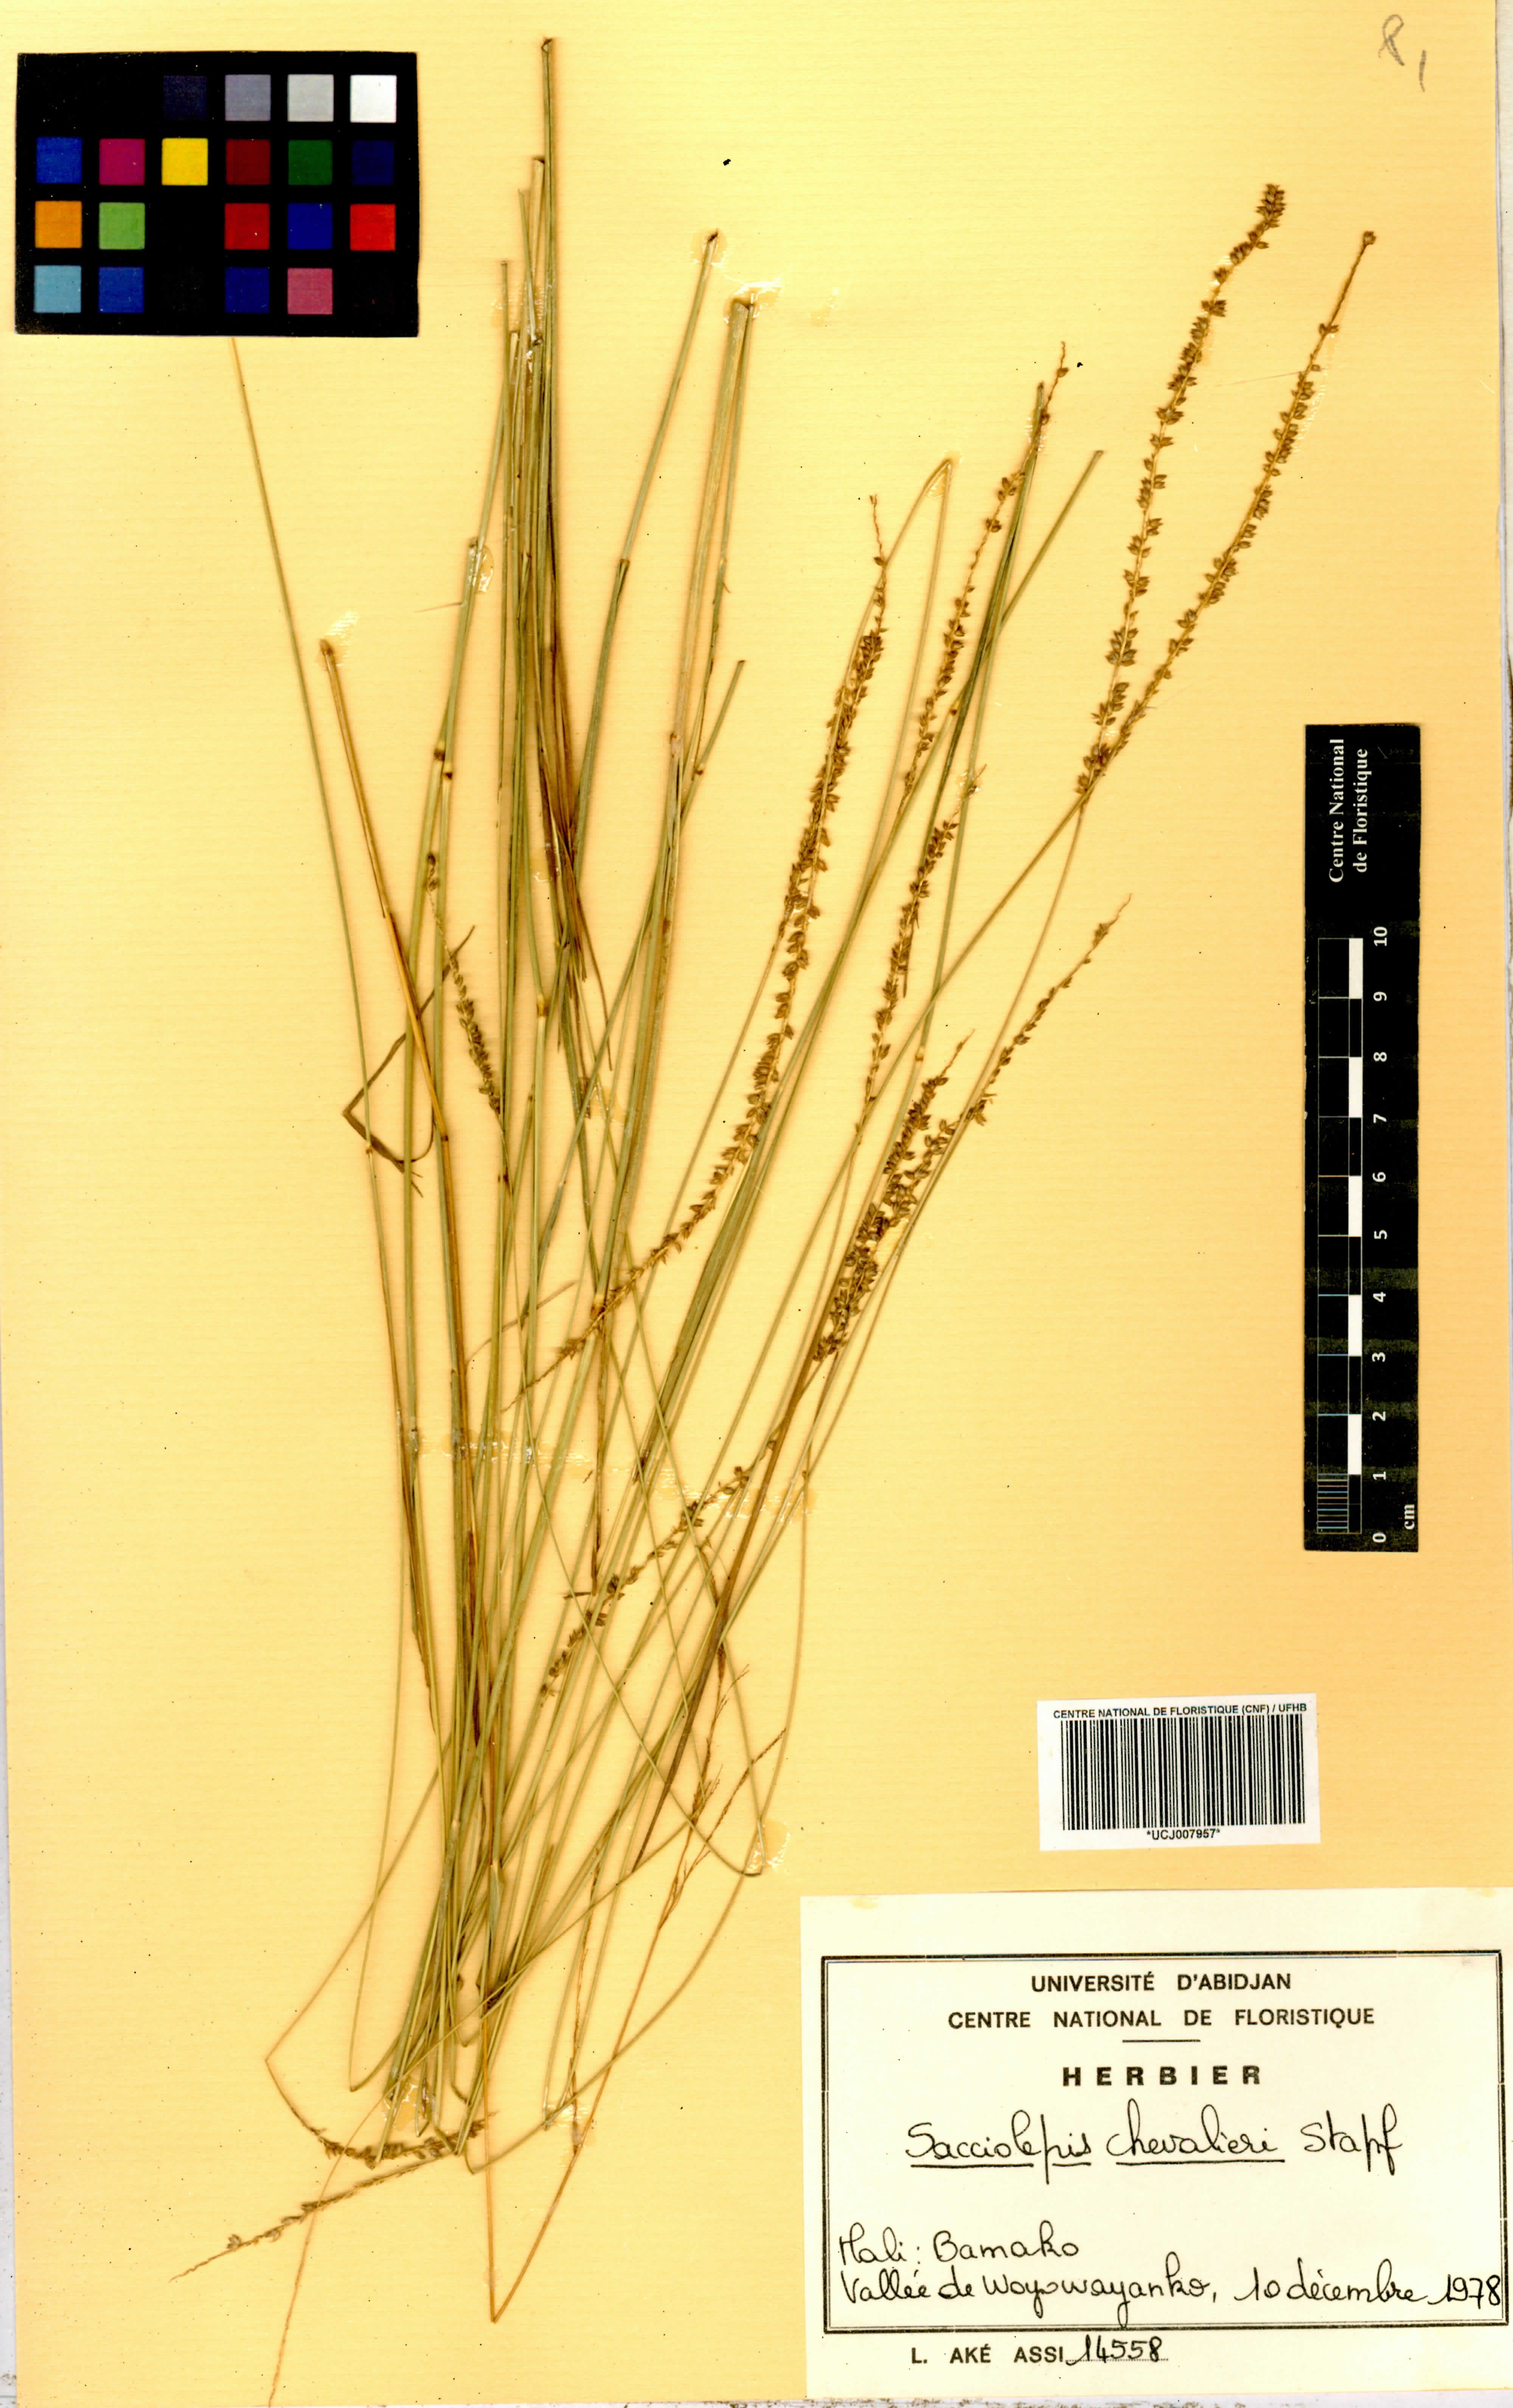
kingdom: Plantae
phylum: Tracheophyta
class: Liliopsida
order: Poales
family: Poaceae
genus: Sacciolepis
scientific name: Sacciolepis chevalieri
